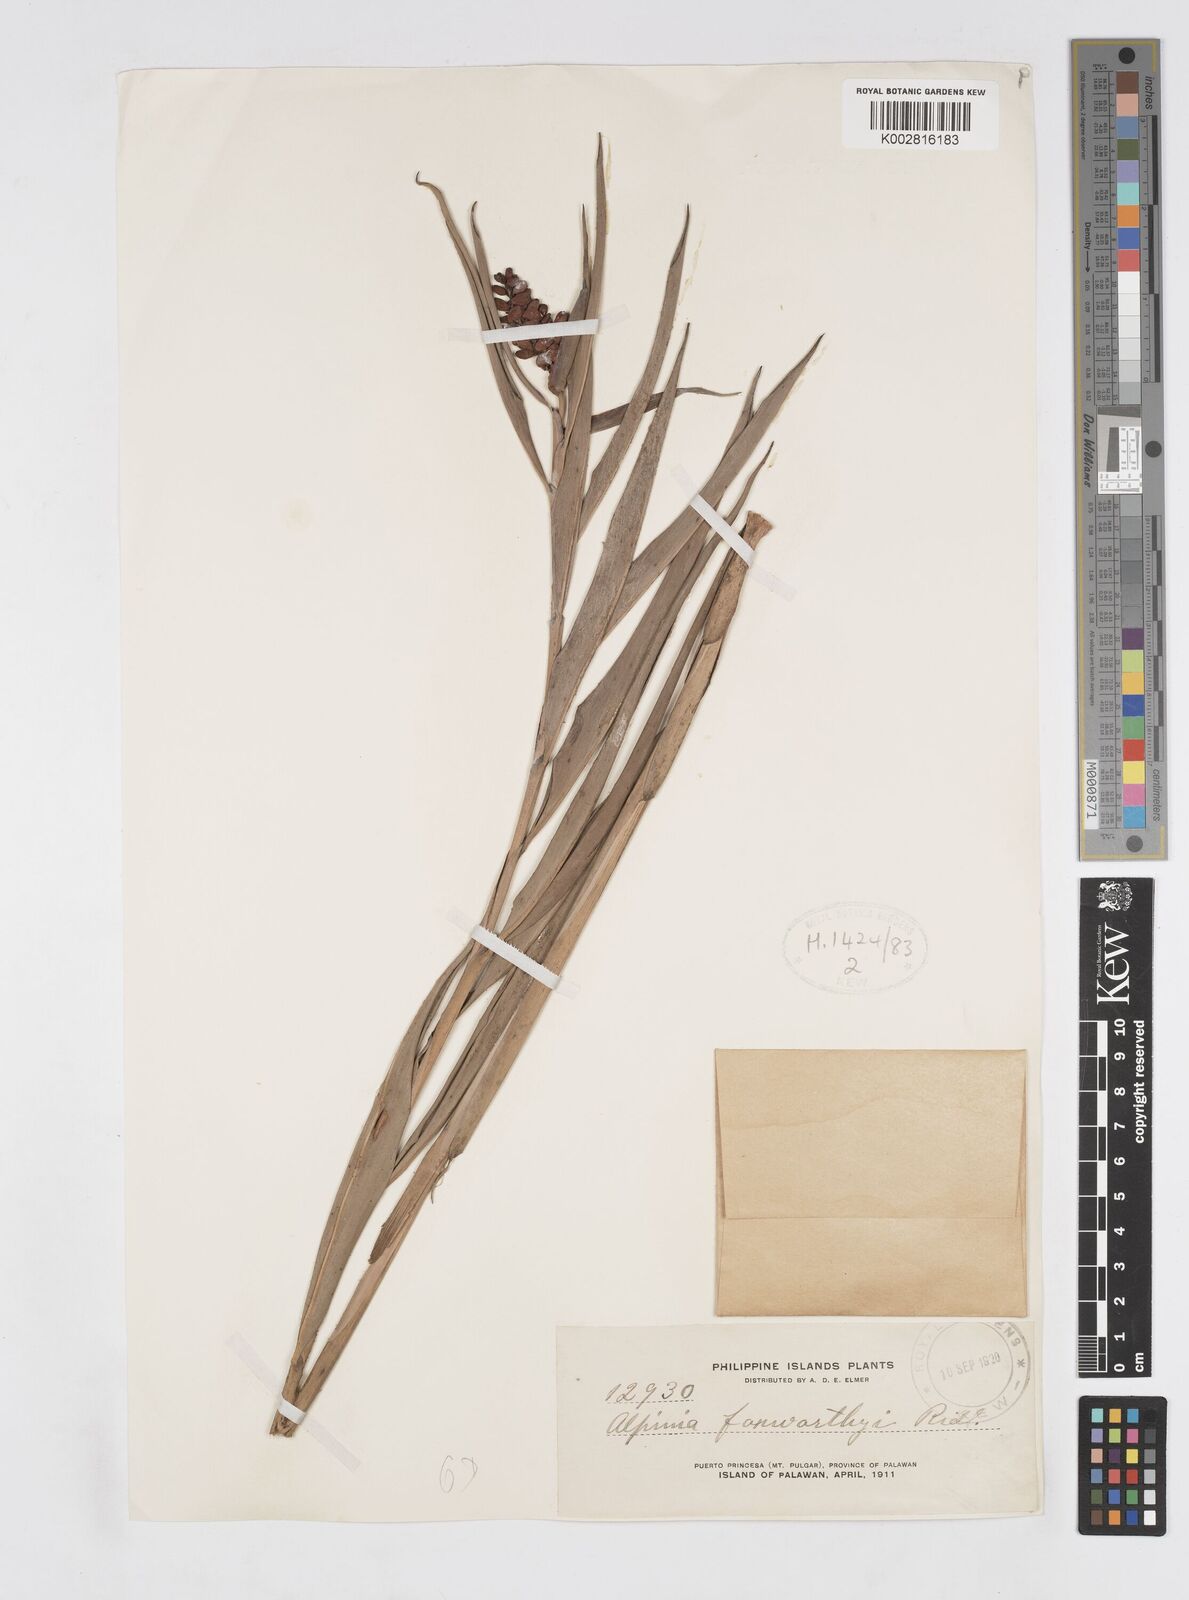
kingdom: Plantae
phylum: Tracheophyta
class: Liliopsida
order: Zingiberales
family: Zingiberaceae
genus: Alpinia
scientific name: Alpinia foxworthyi
